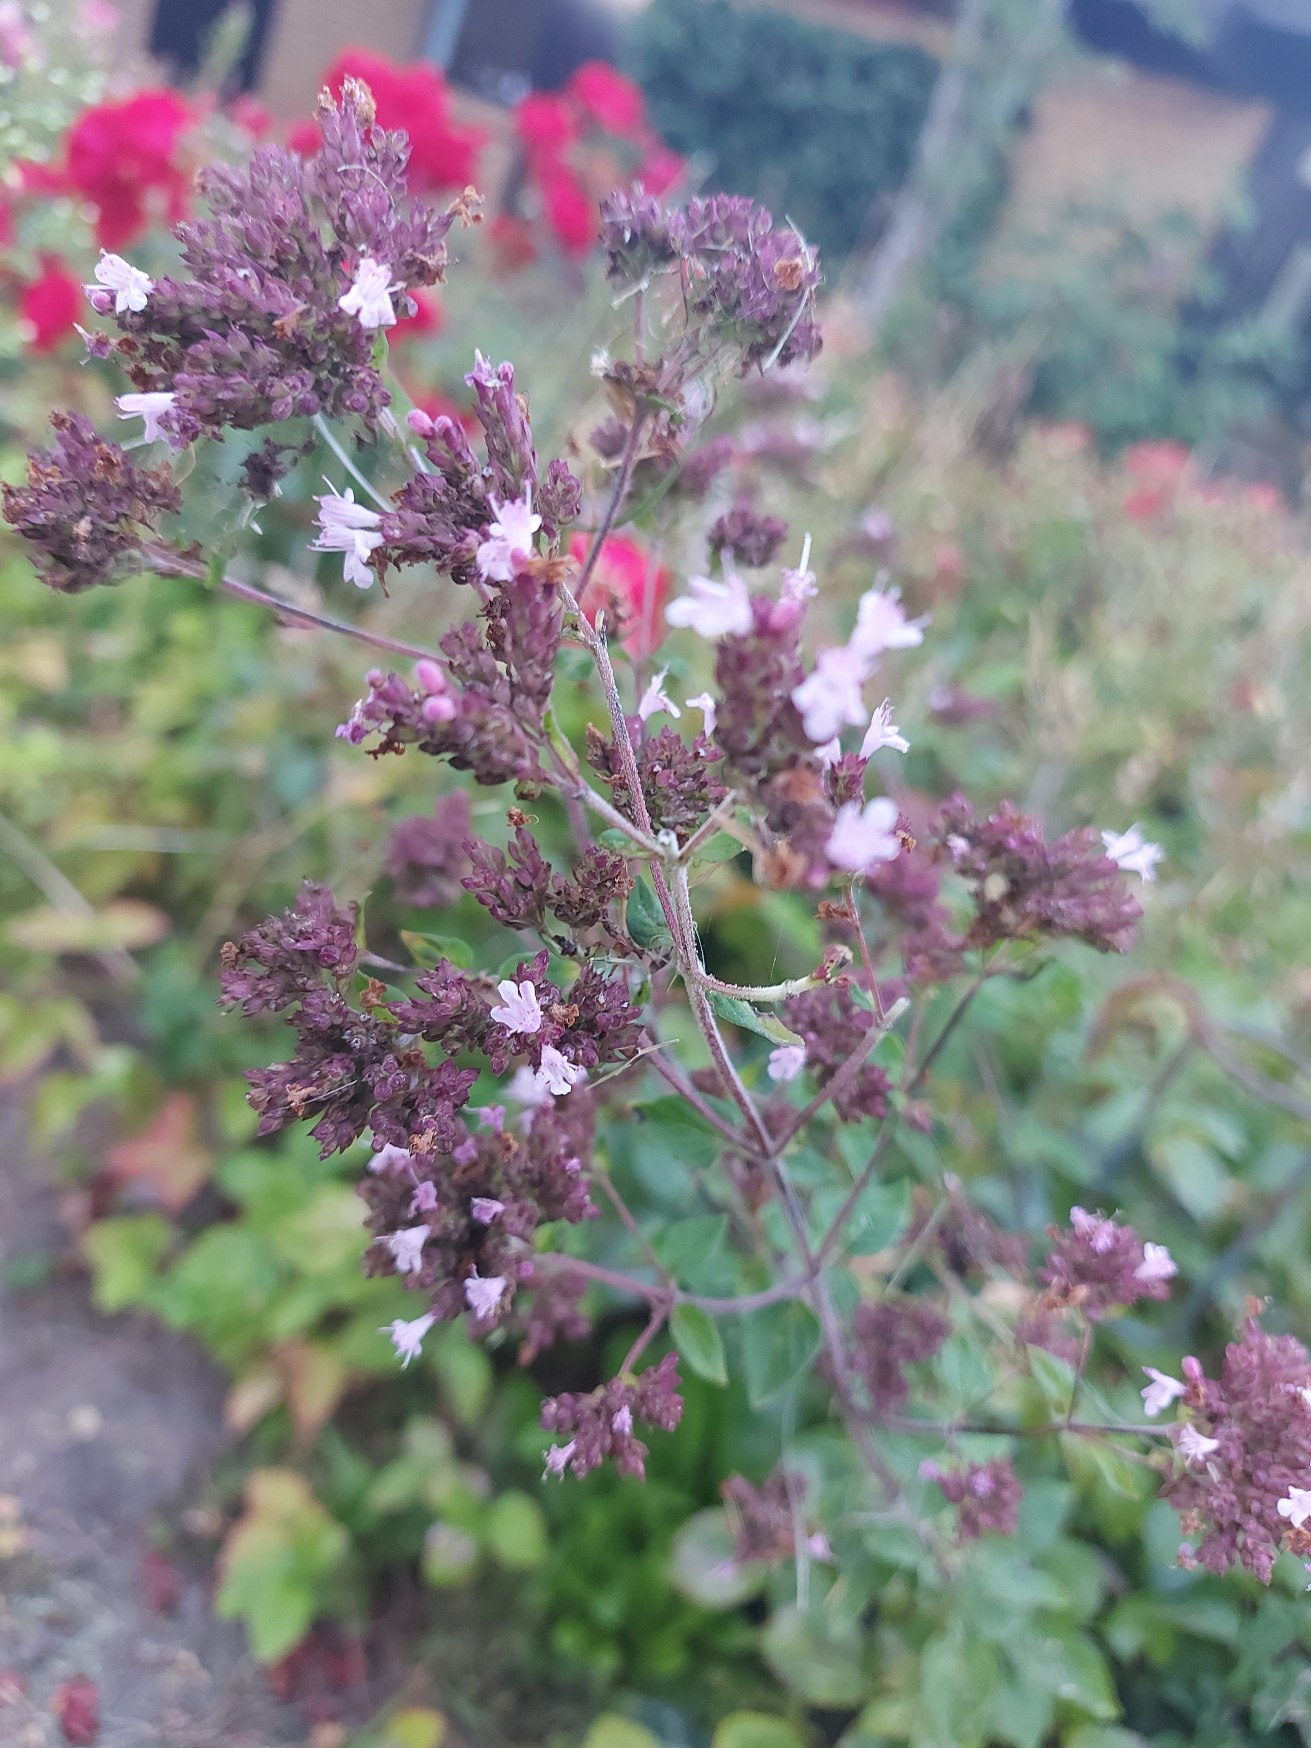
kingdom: Plantae
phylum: Tracheophyta
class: Magnoliopsida
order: Lamiales
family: Lamiaceae
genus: Origanum
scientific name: Origanum vulgare
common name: Merian
